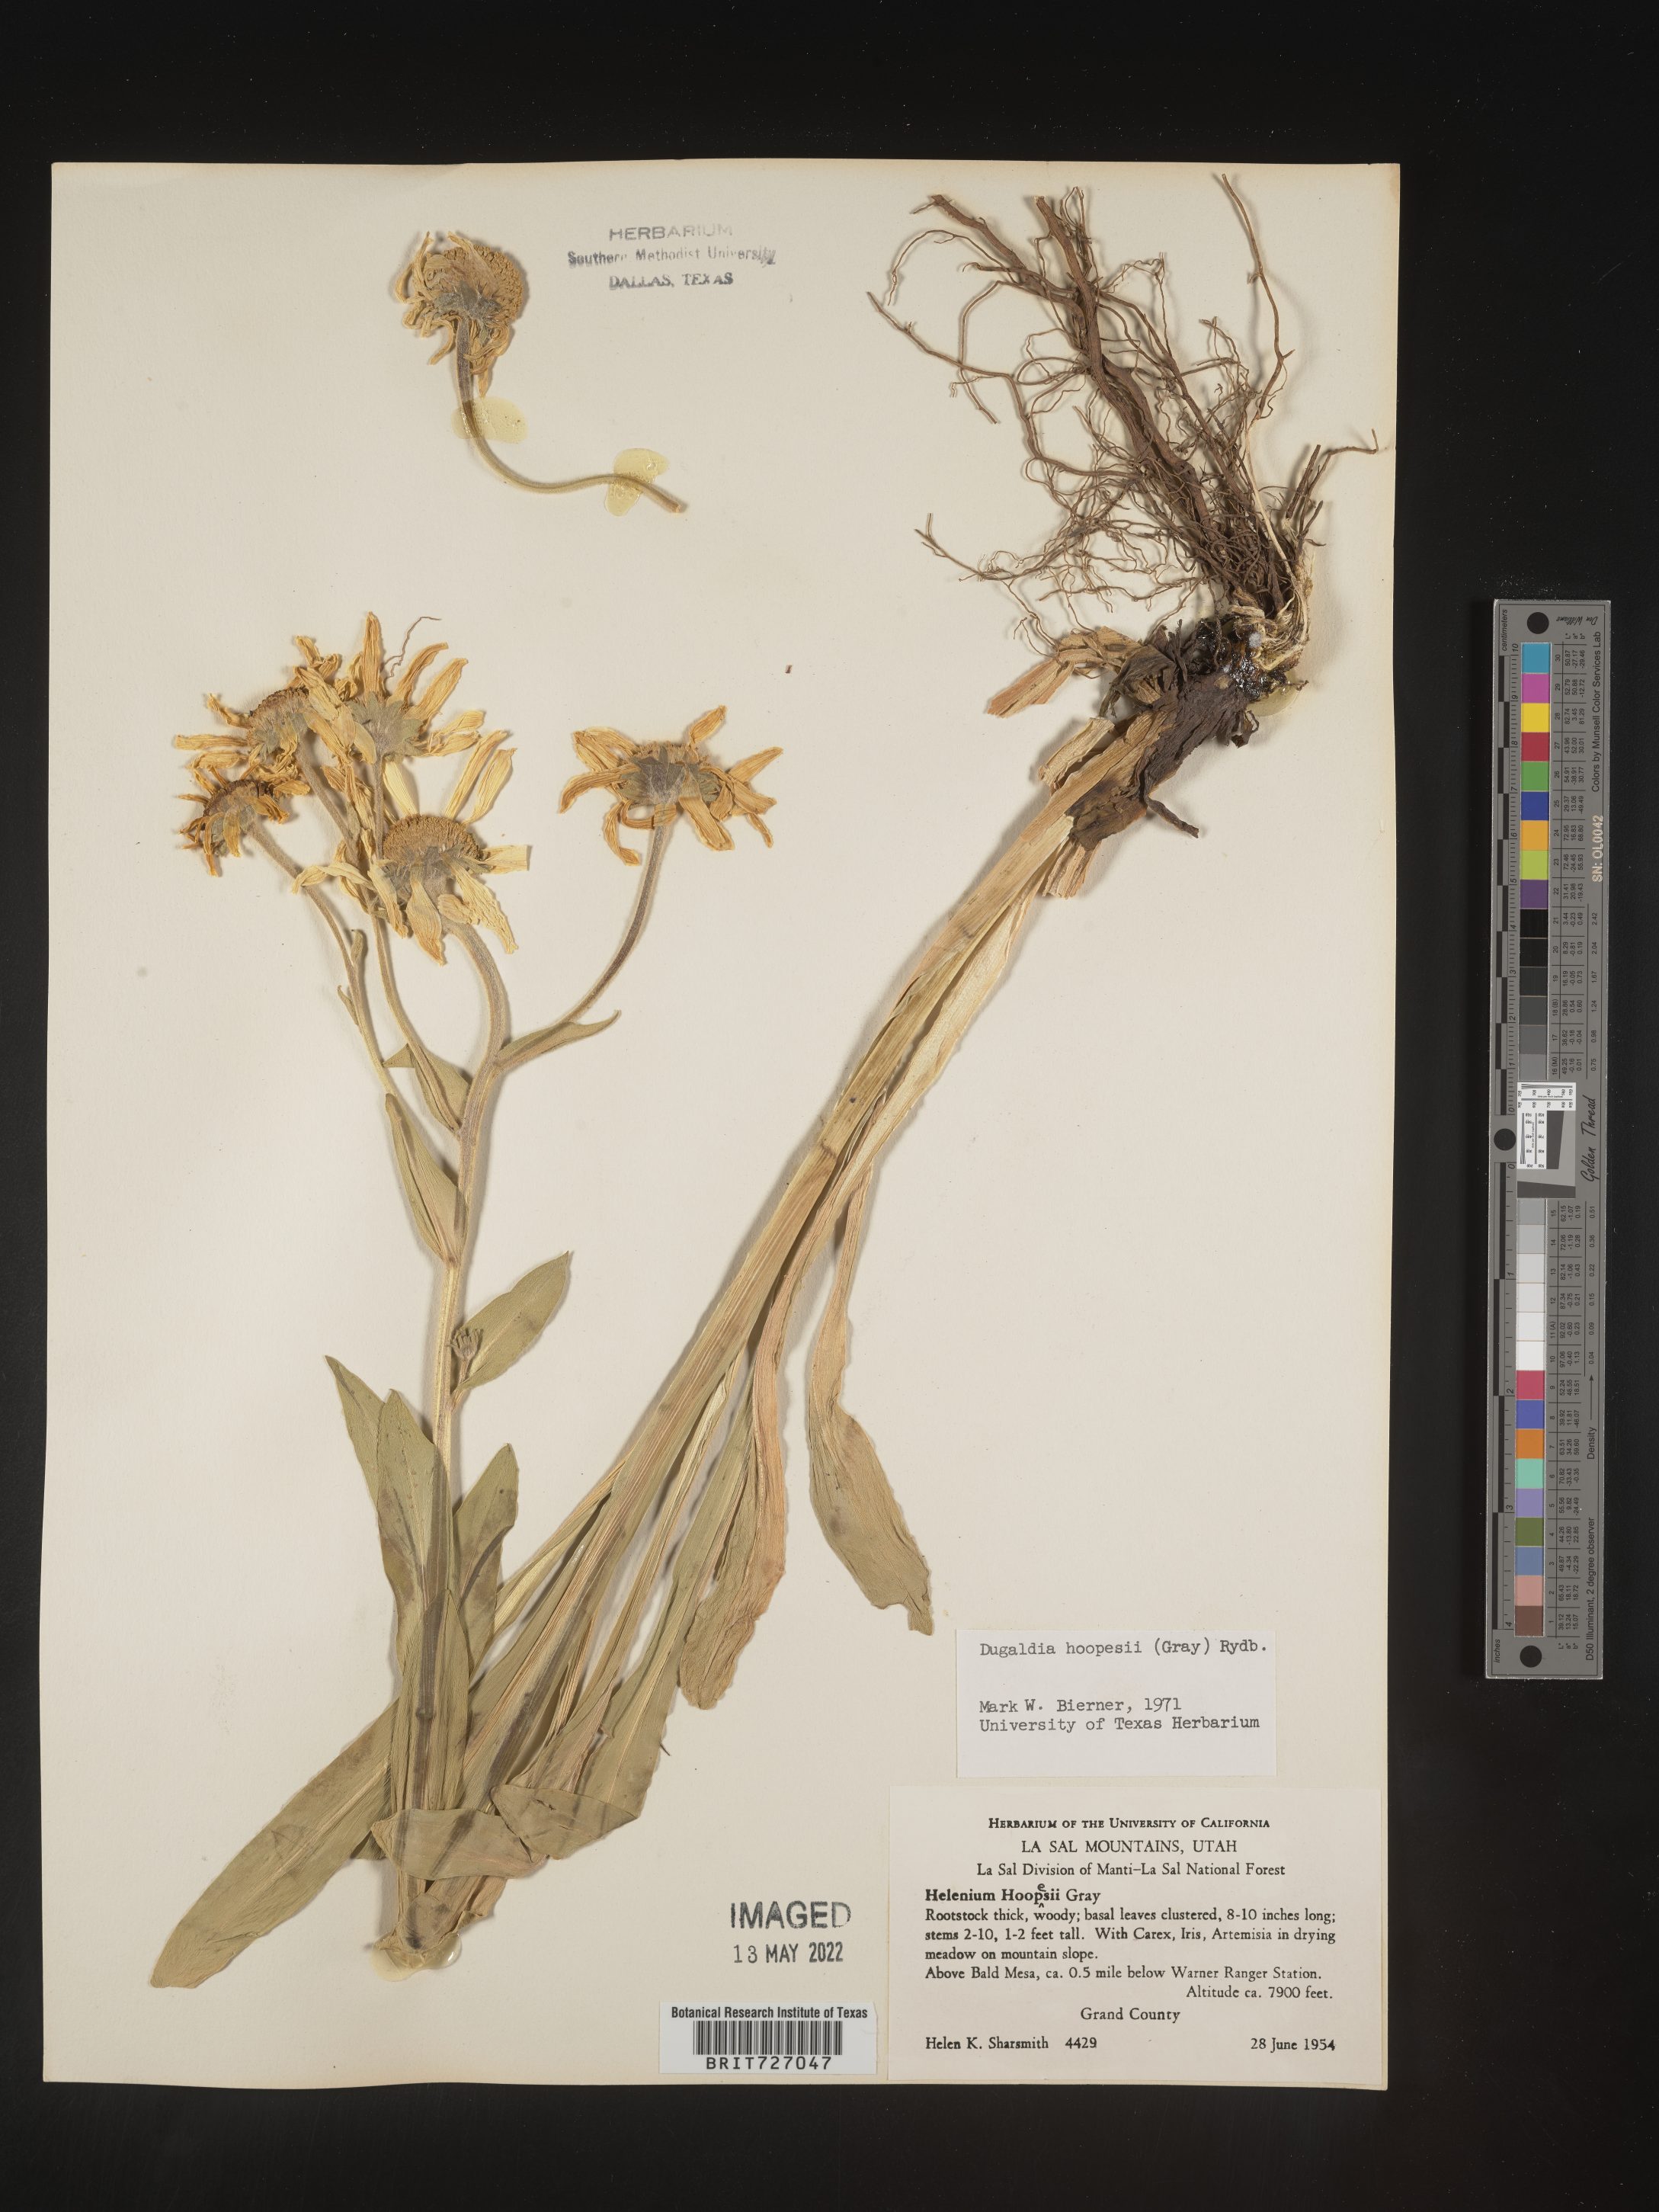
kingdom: Plantae
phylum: Tracheophyta
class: Magnoliopsida
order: Asterales
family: Asteraceae
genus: Hymenoxys
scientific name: Hymenoxys hoopesii
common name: Orange-sneezeweed
